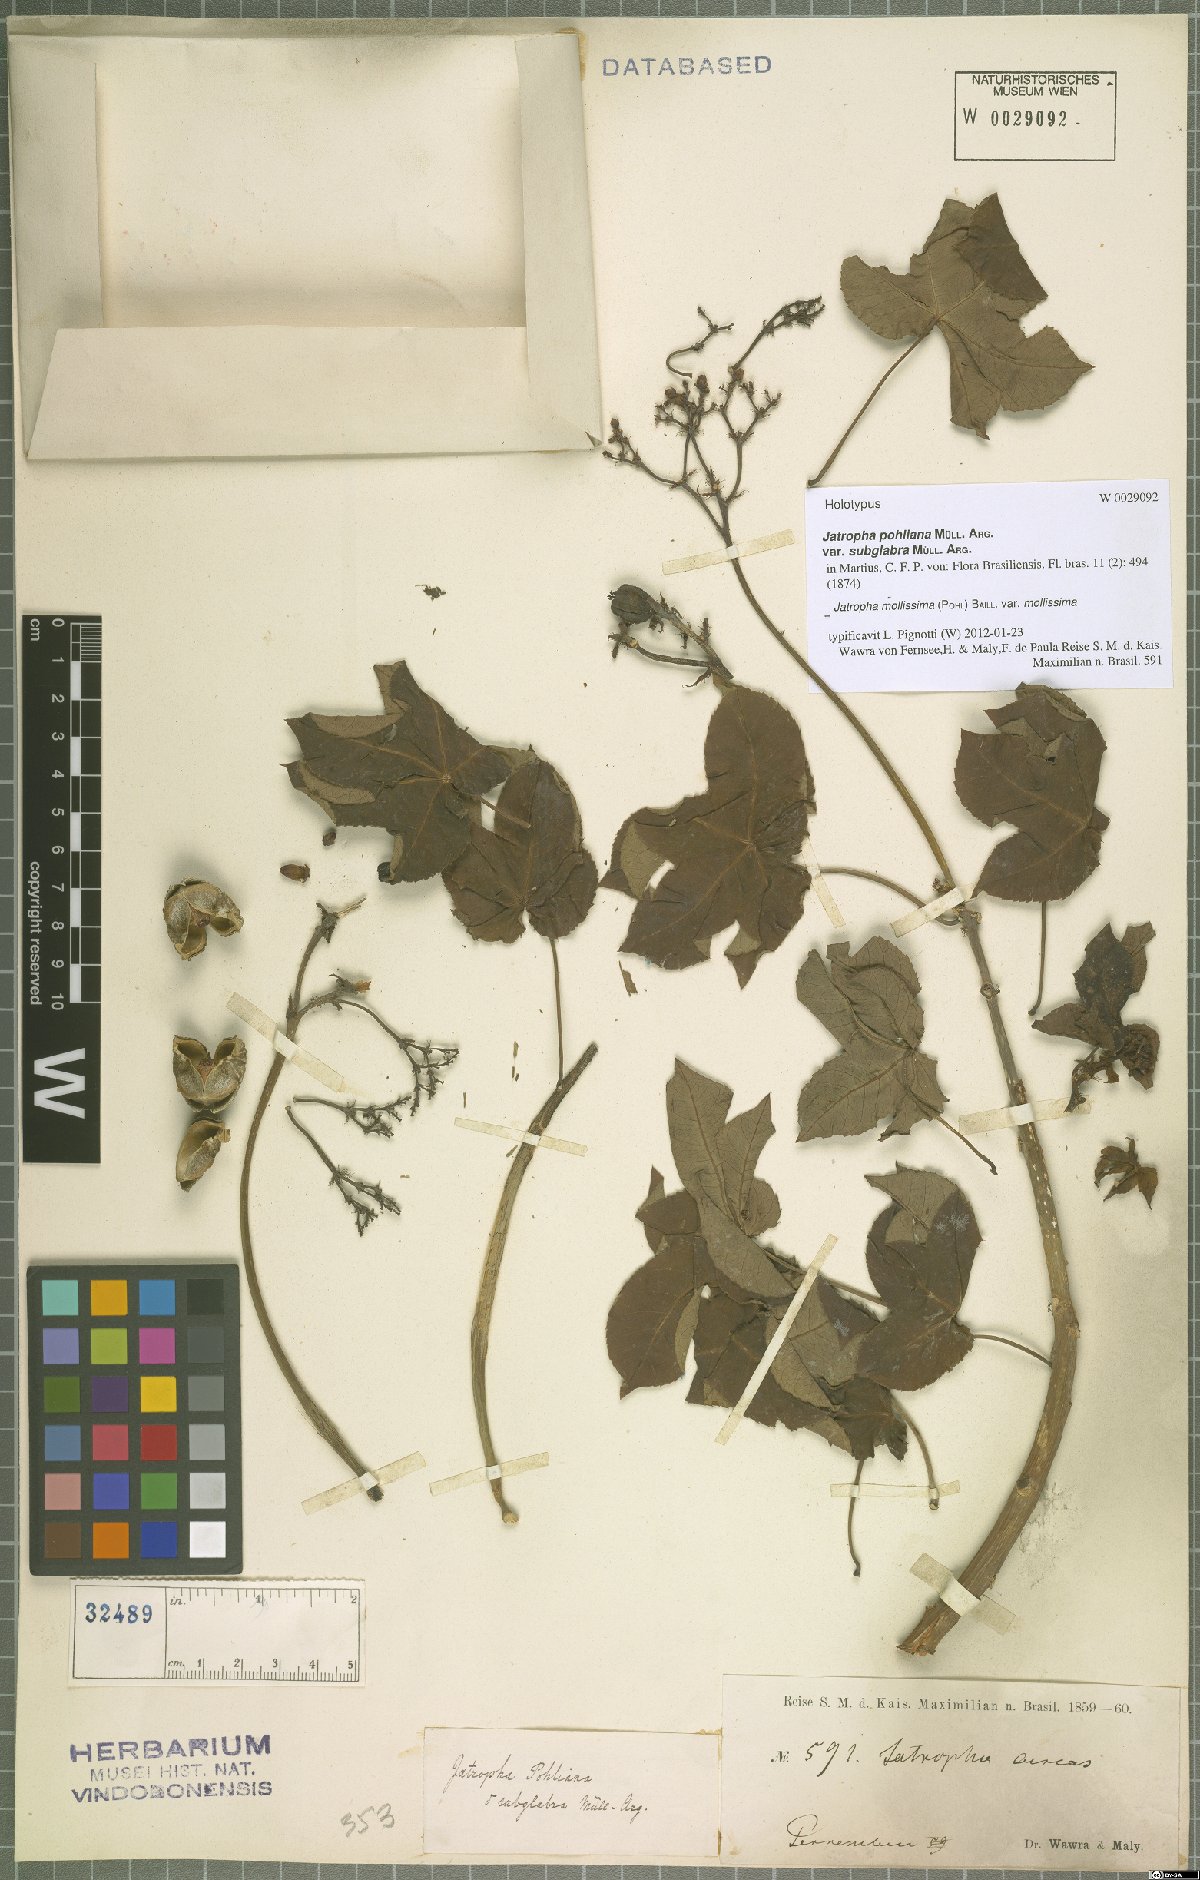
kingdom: Plantae
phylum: Tracheophyta
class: Magnoliopsida
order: Malpighiales
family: Euphorbiaceae
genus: Jatropha
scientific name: Jatropha mollissima
